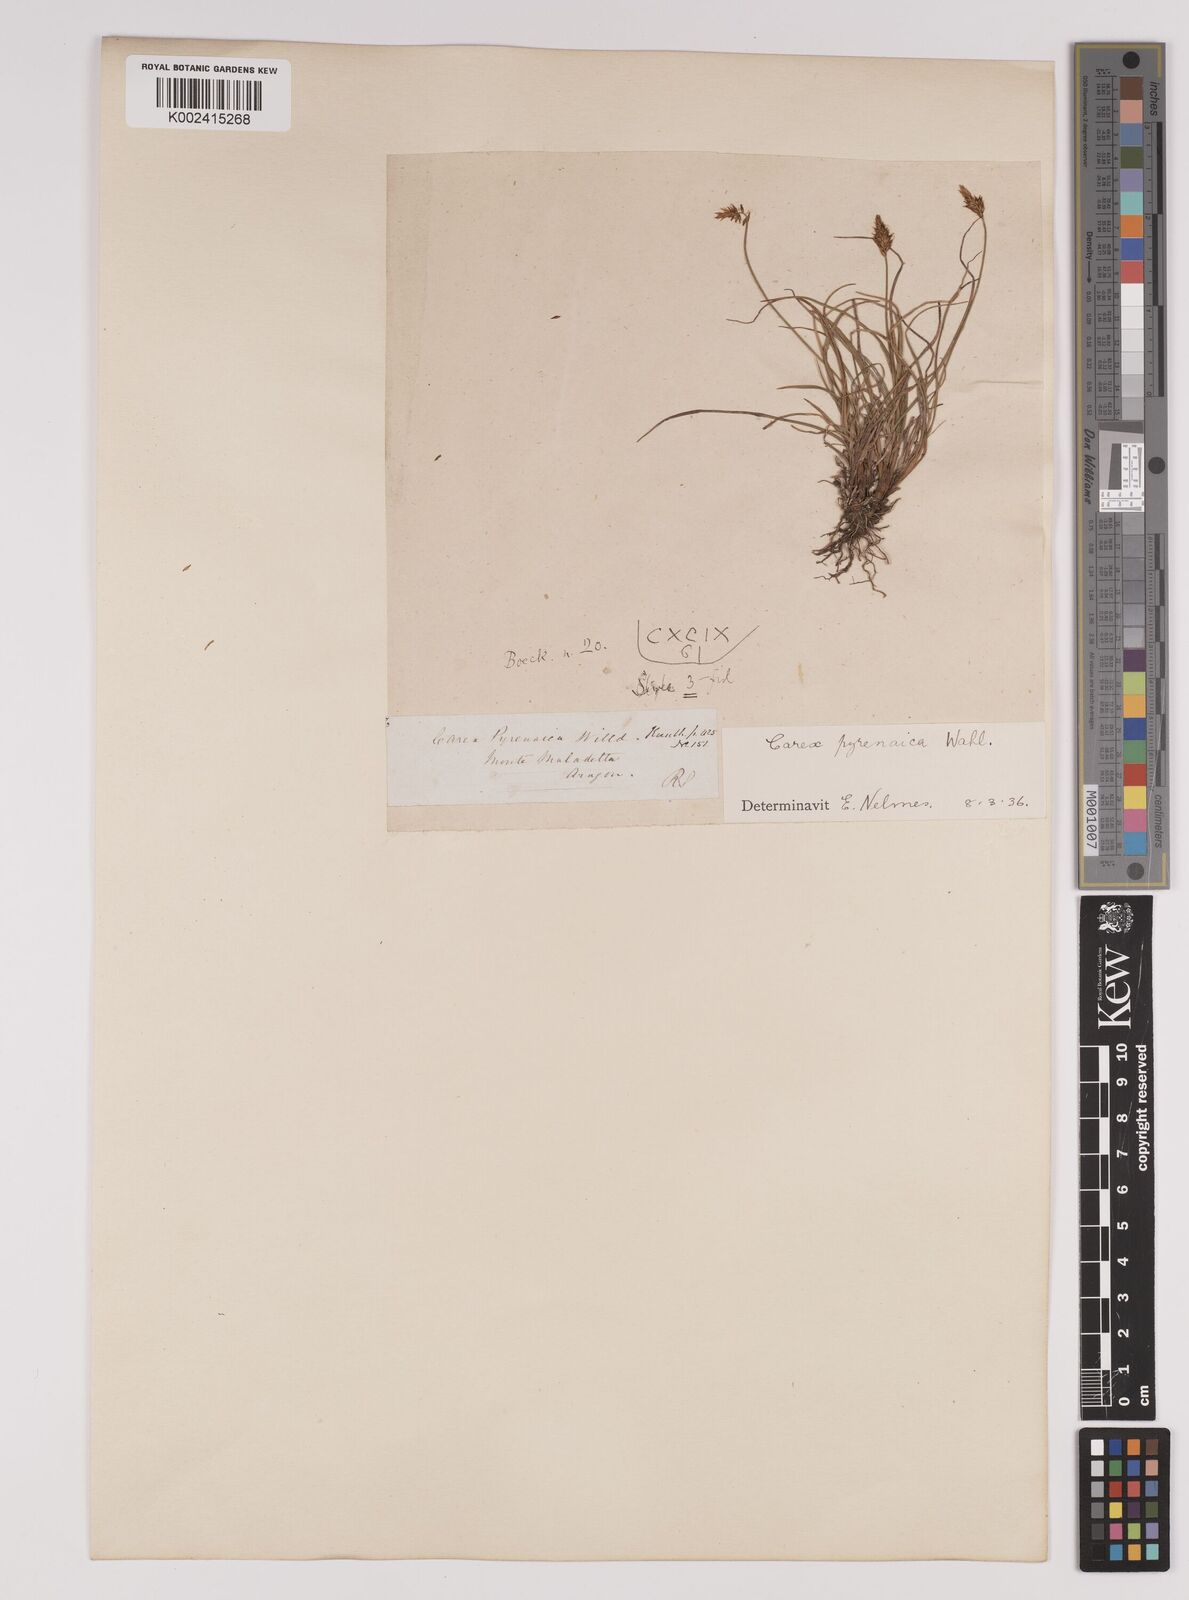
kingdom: Plantae
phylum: Tracheophyta
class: Liliopsida
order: Poales
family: Cyperaceae
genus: Carex
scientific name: Carex pyrenaica
